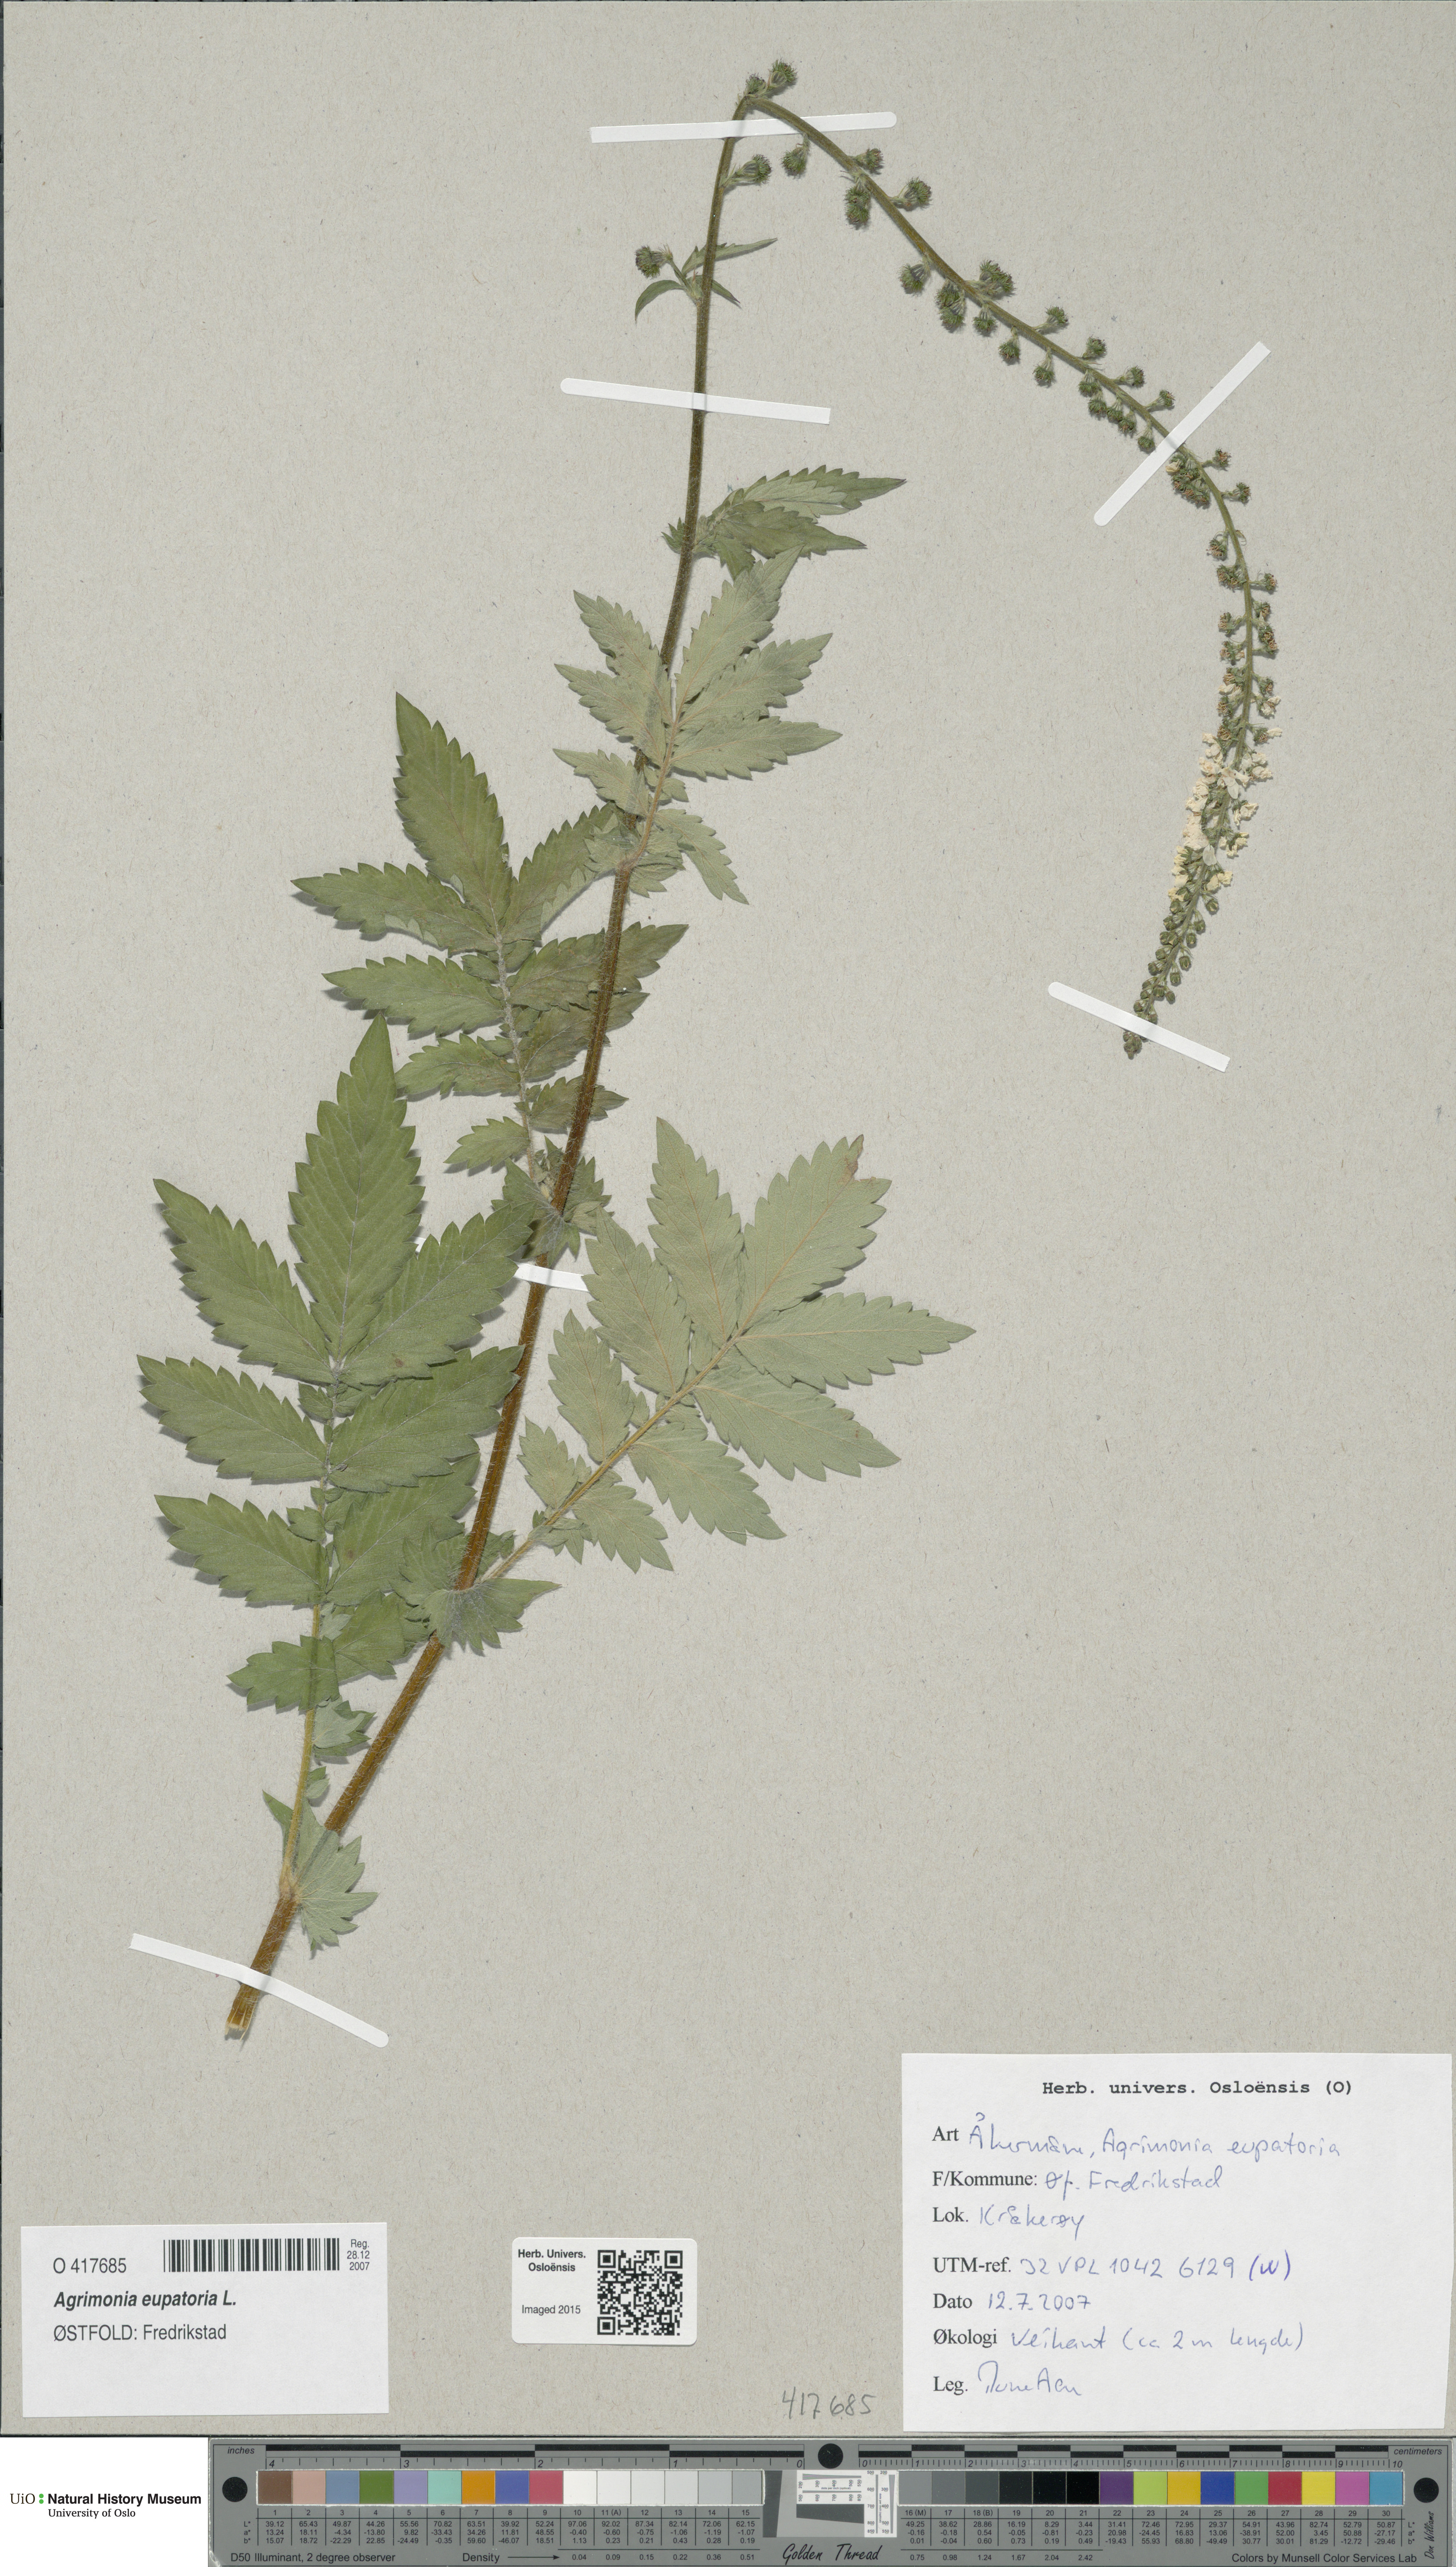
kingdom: Plantae
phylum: Tracheophyta
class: Magnoliopsida
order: Rosales
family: Rosaceae
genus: Agrimonia
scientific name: Agrimonia eupatoria
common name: Agrimony
